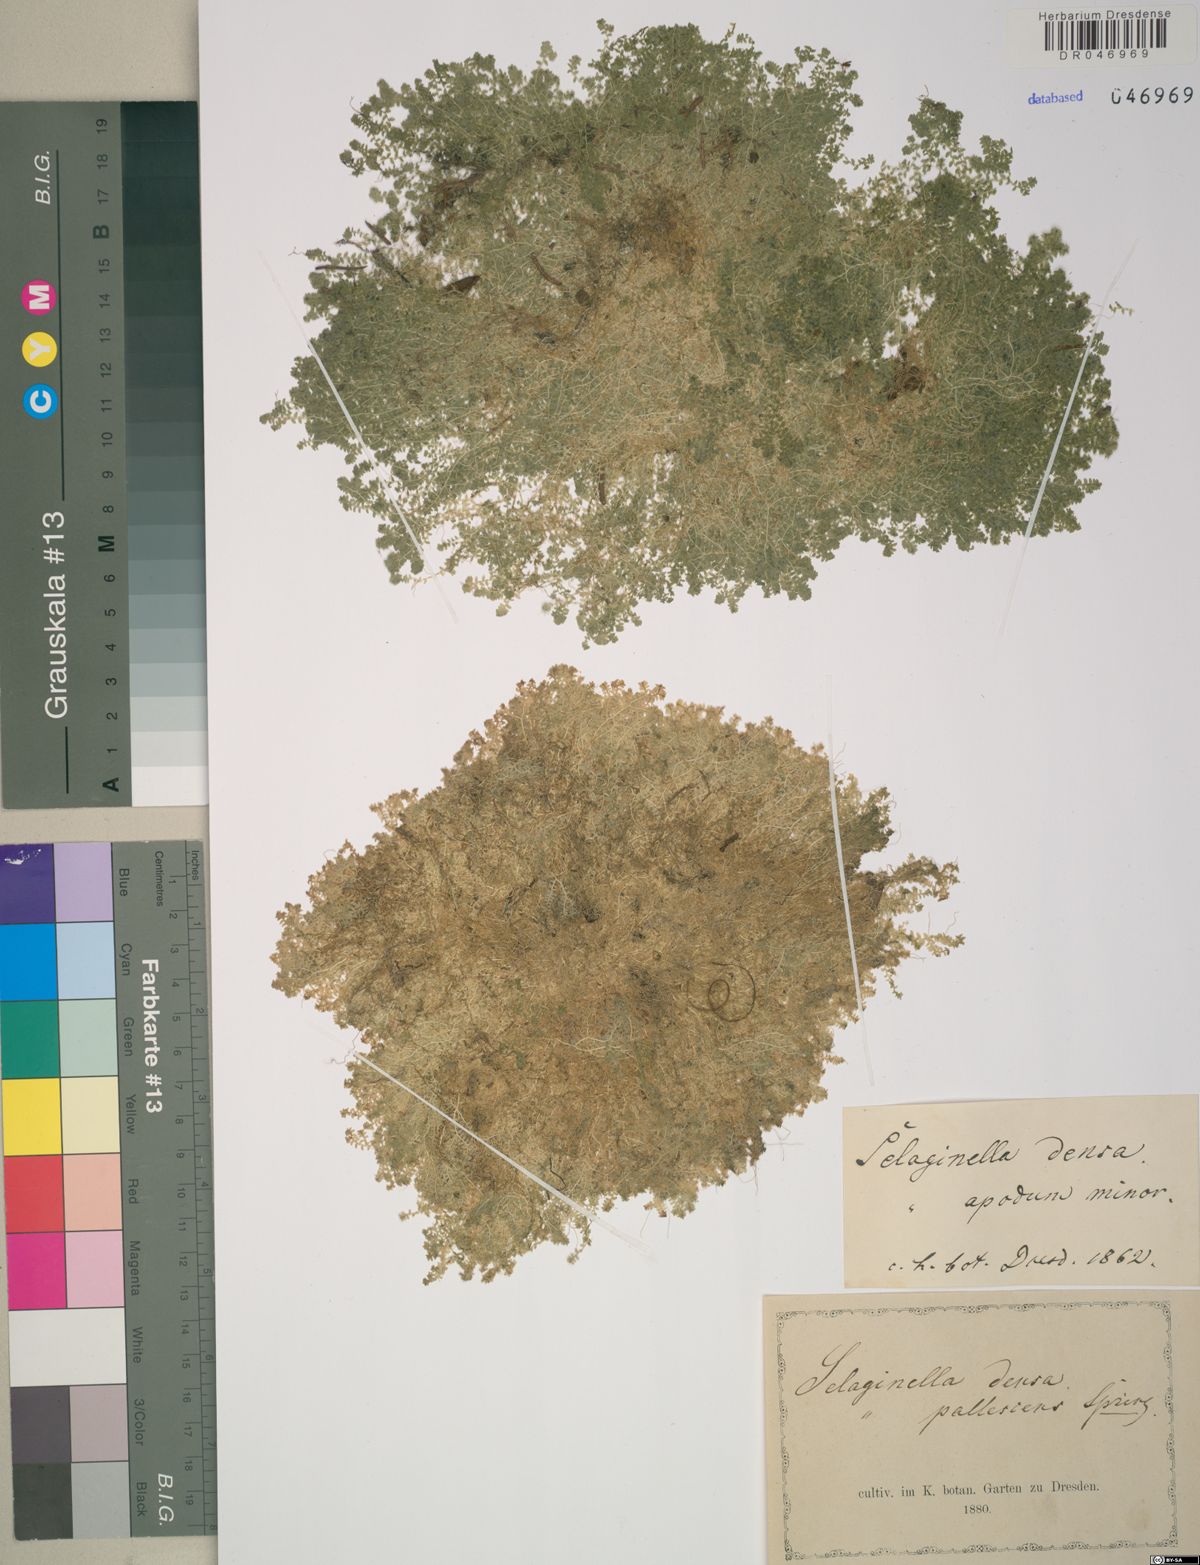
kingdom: Plantae
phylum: Tracheophyta
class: Lycopodiopsida
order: Selaginellales
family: Selaginellaceae
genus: Selaginella
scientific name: Selaginella densa
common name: Mountain spike-moss
